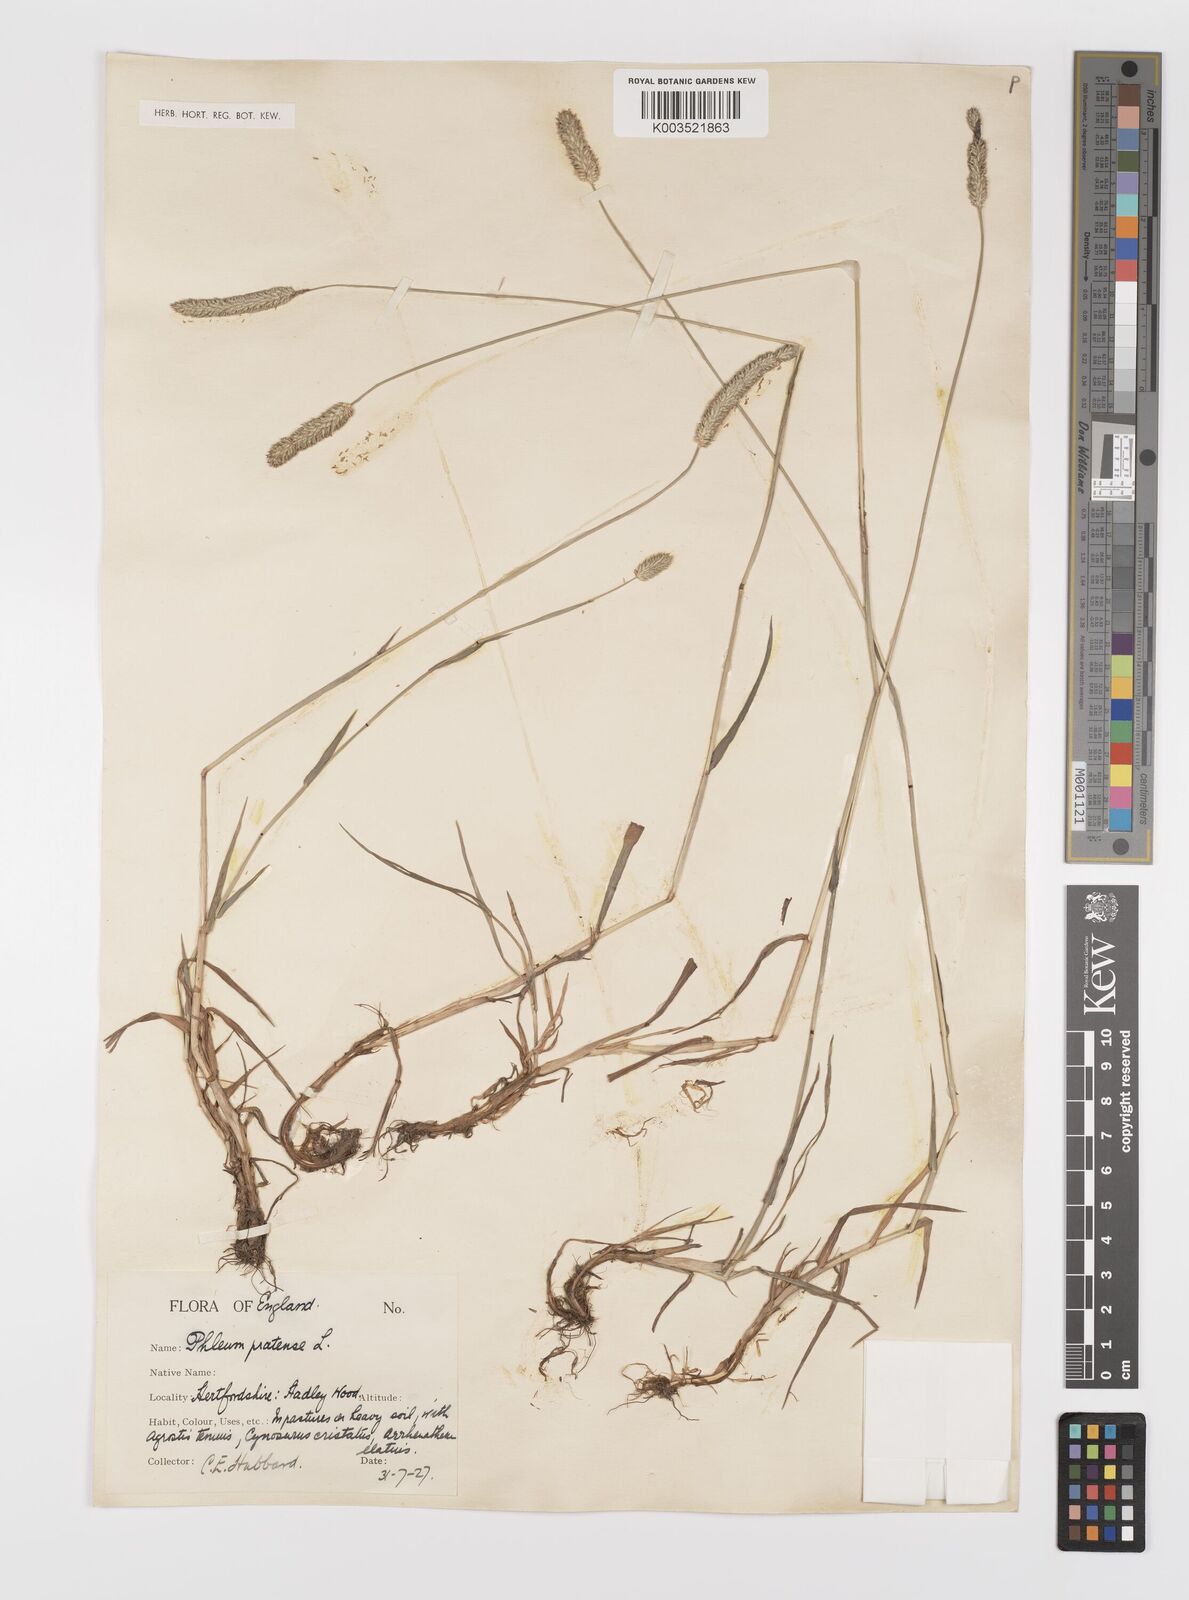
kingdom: Plantae
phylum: Tracheophyta
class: Liliopsida
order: Poales
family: Poaceae
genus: Phleum
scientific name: Phleum bertolonii
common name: Smaller cat's-tail
